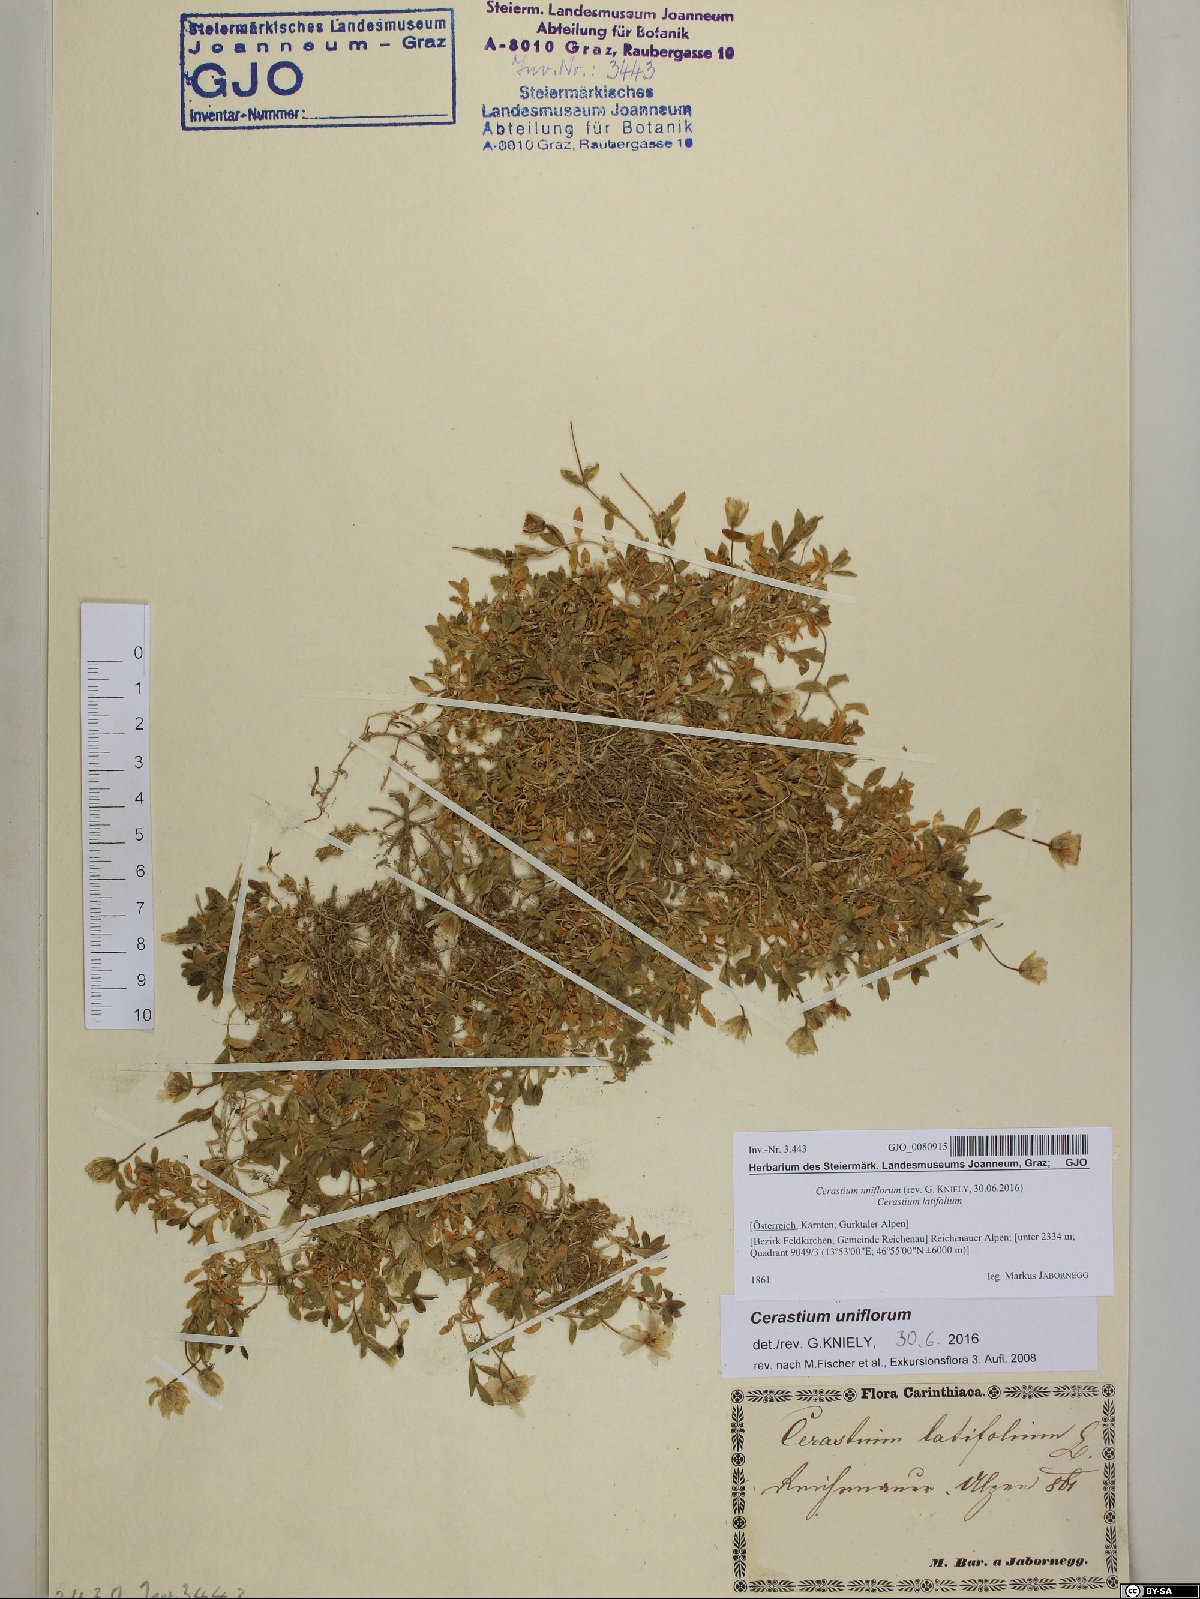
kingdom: Plantae
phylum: Tracheophyta
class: Magnoliopsida
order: Caryophyllales
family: Caryophyllaceae
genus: Cerastium
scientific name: Cerastium uniflorum
